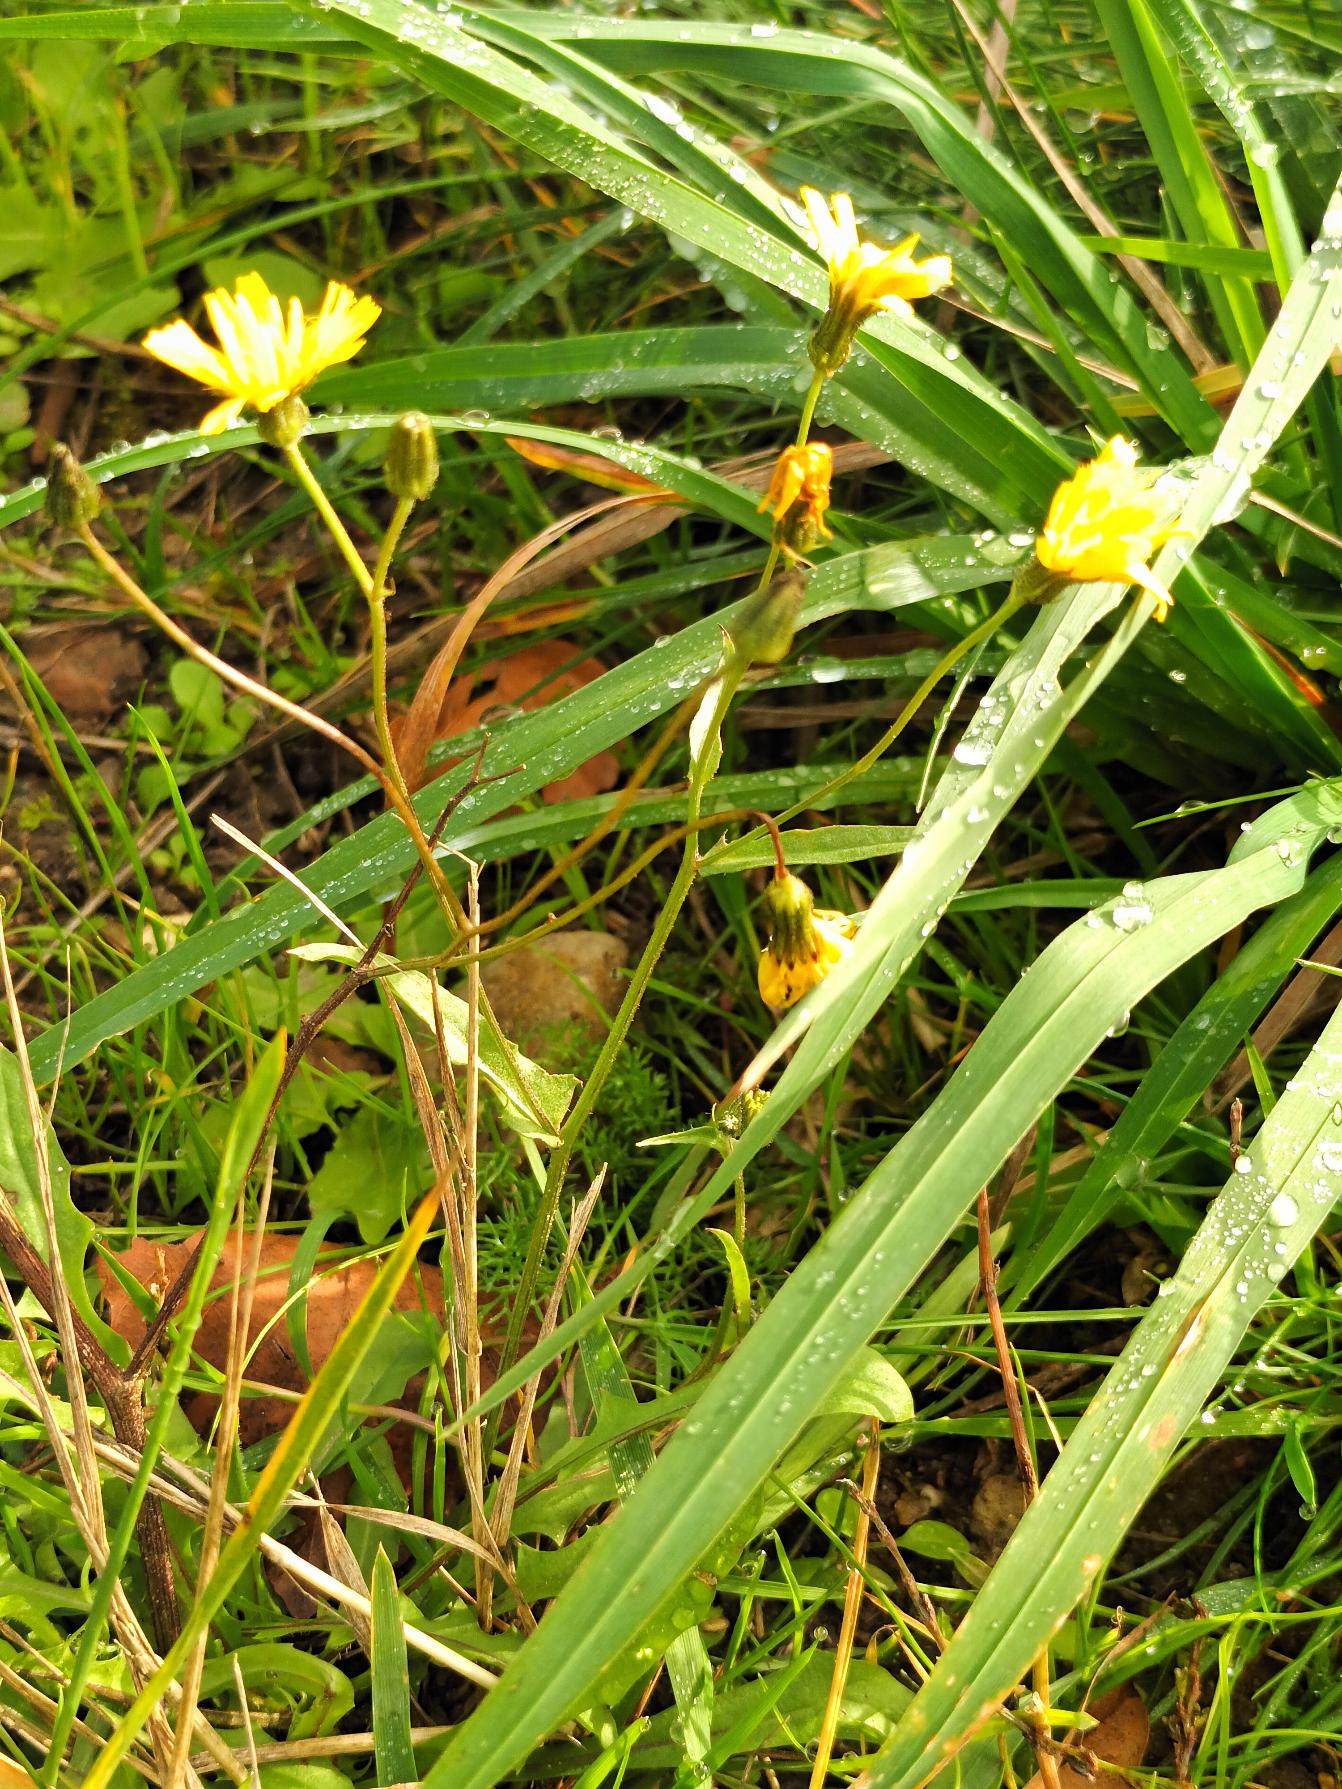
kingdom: Plantae
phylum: Tracheophyta
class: Magnoliopsida
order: Asterales
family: Asteraceae
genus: Crepis
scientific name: Crepis capillaris
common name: Grøn høgeskæg
